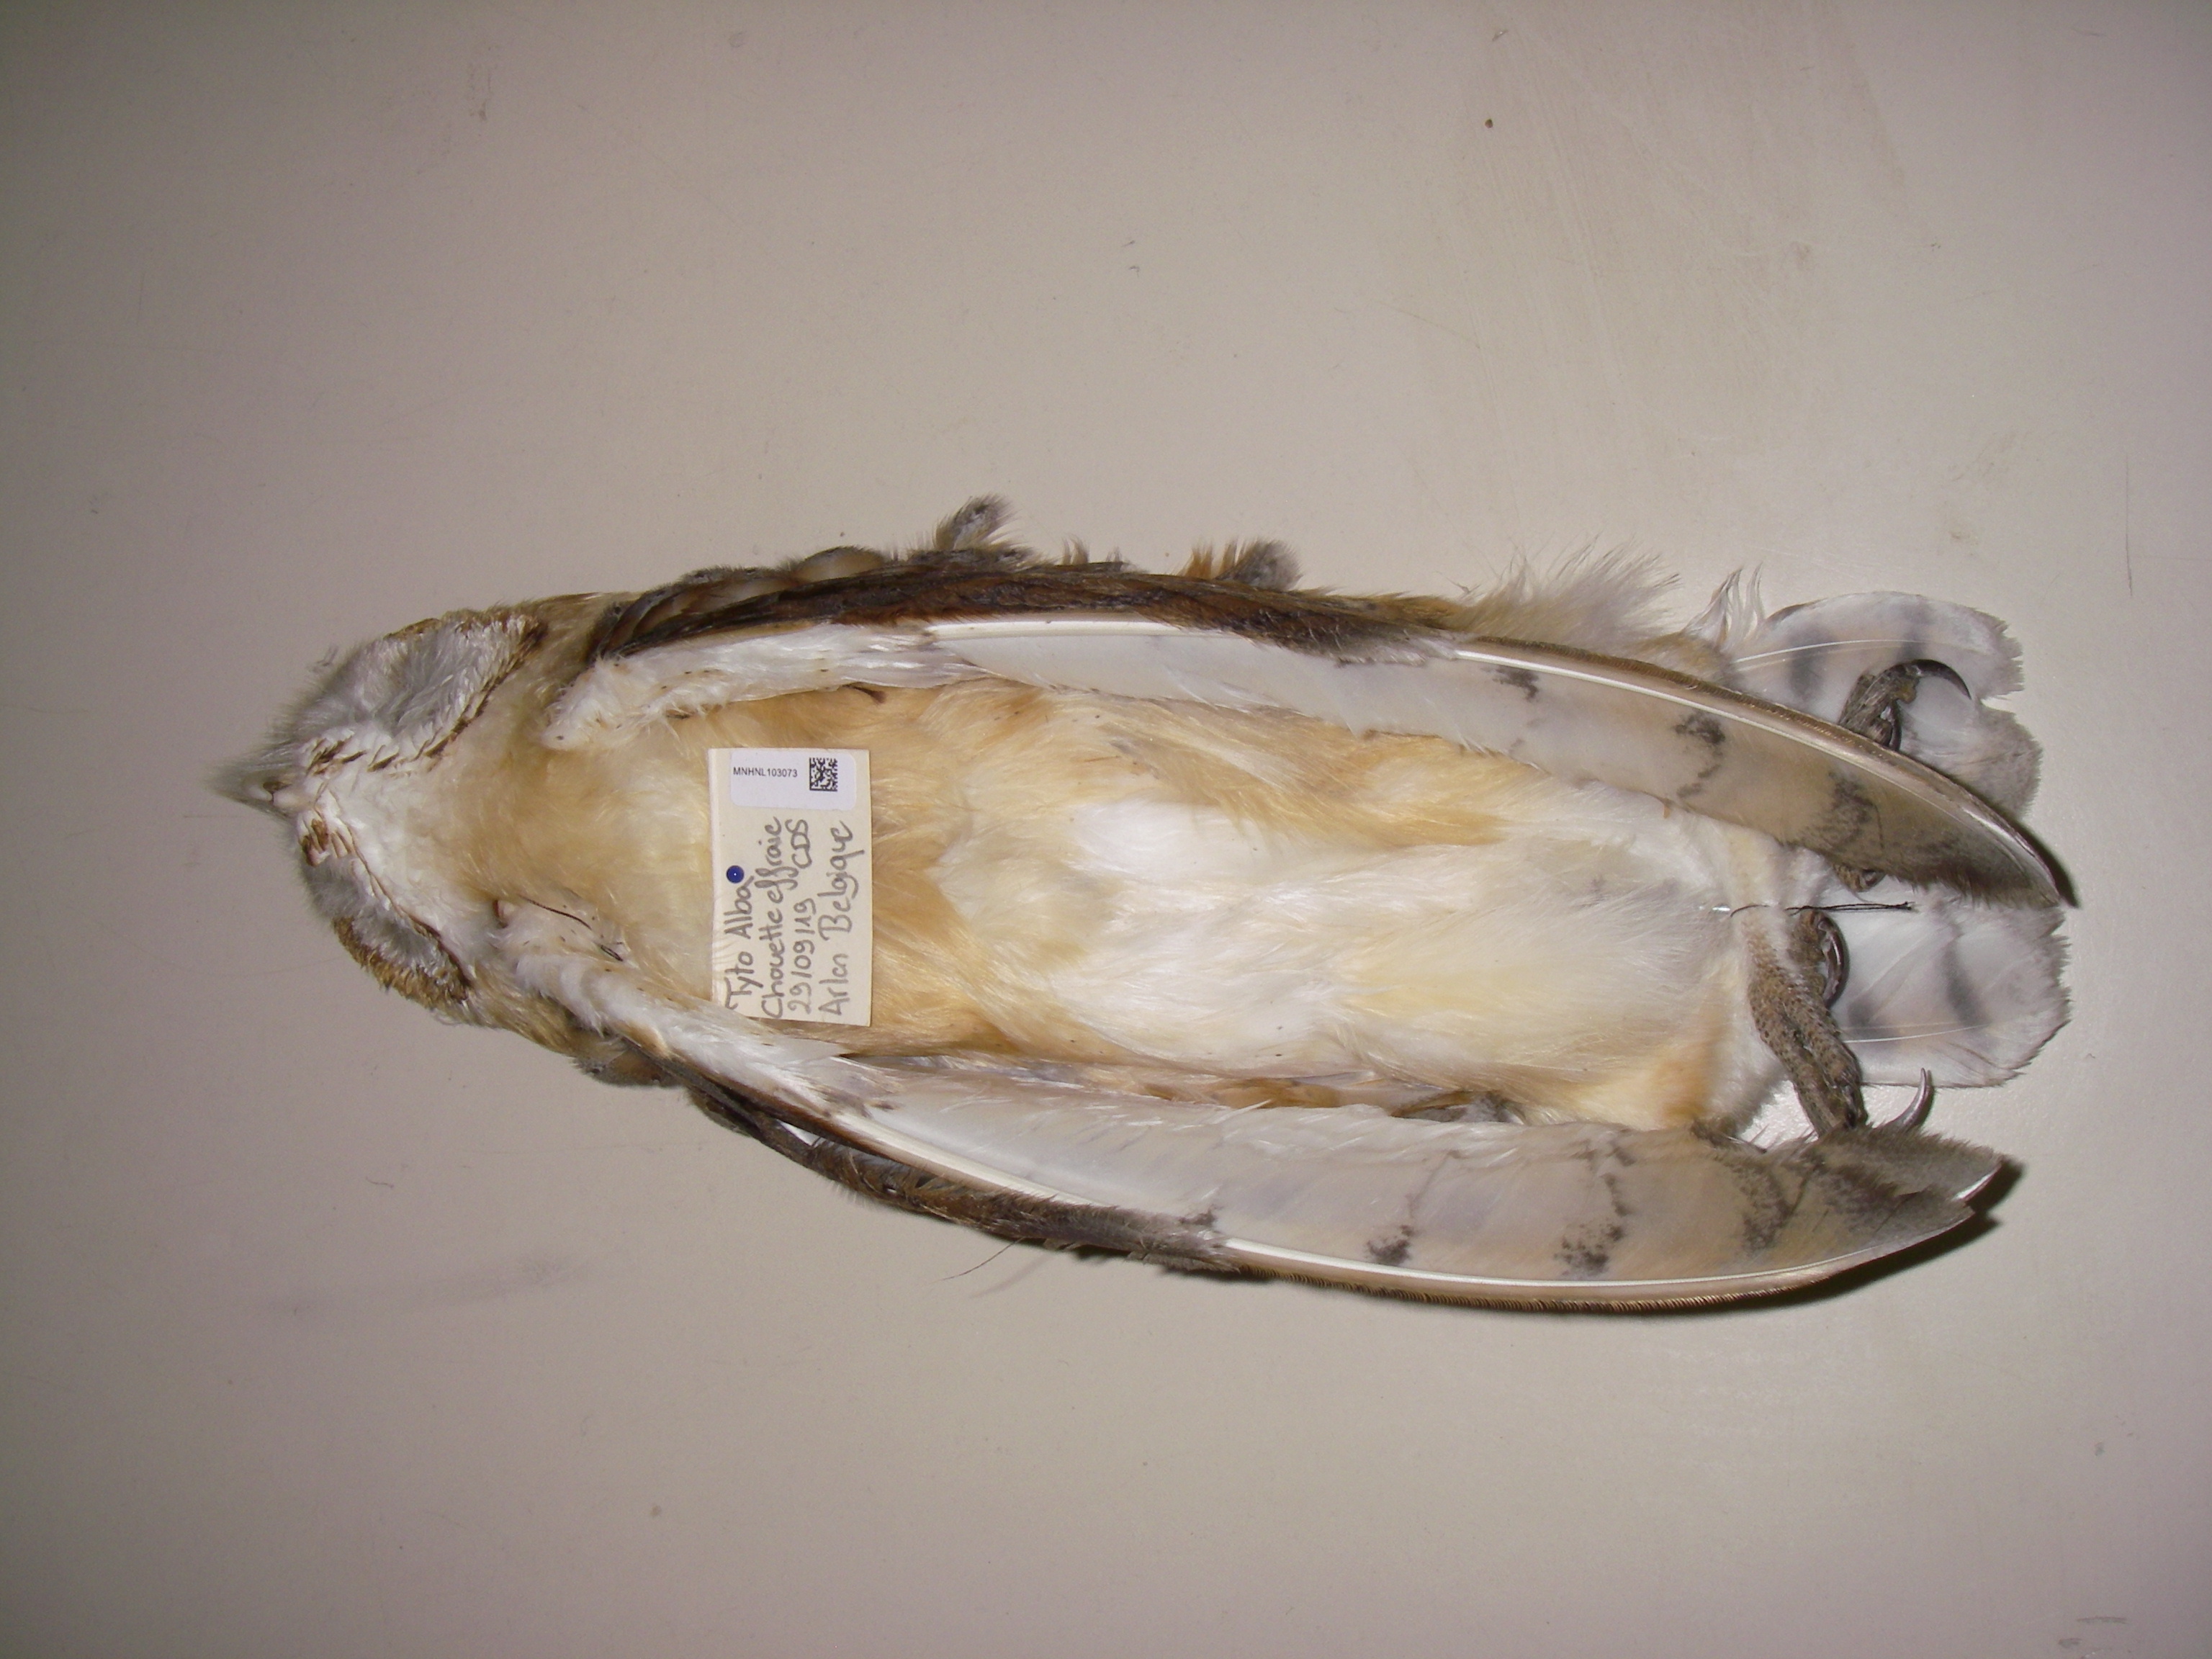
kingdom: Animalia
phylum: Chordata
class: Aves
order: Strigiformes
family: Tytonidae
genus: Tyto
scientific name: Tyto alba
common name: Barn owl
